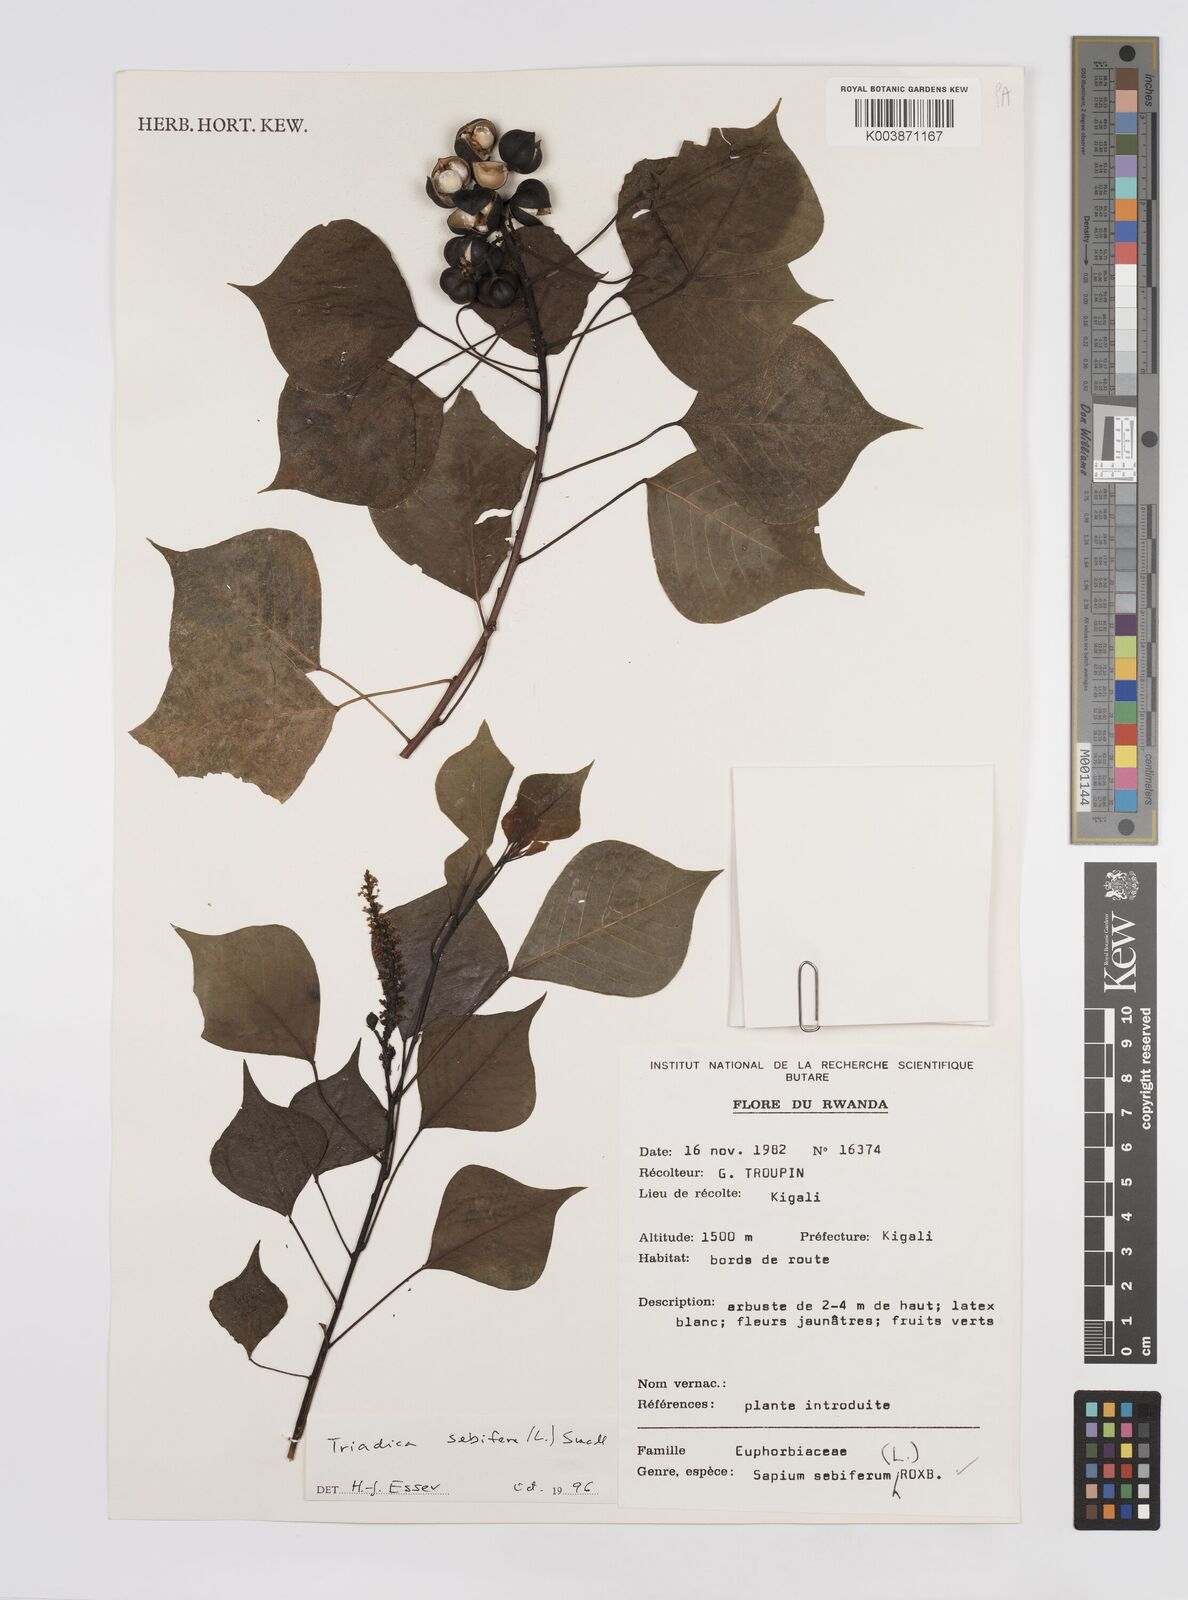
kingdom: Plantae
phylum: Tracheophyta
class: Magnoliopsida
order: Malpighiales
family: Euphorbiaceae
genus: Triadica
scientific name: Triadica sebifera
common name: Chinese tallow
